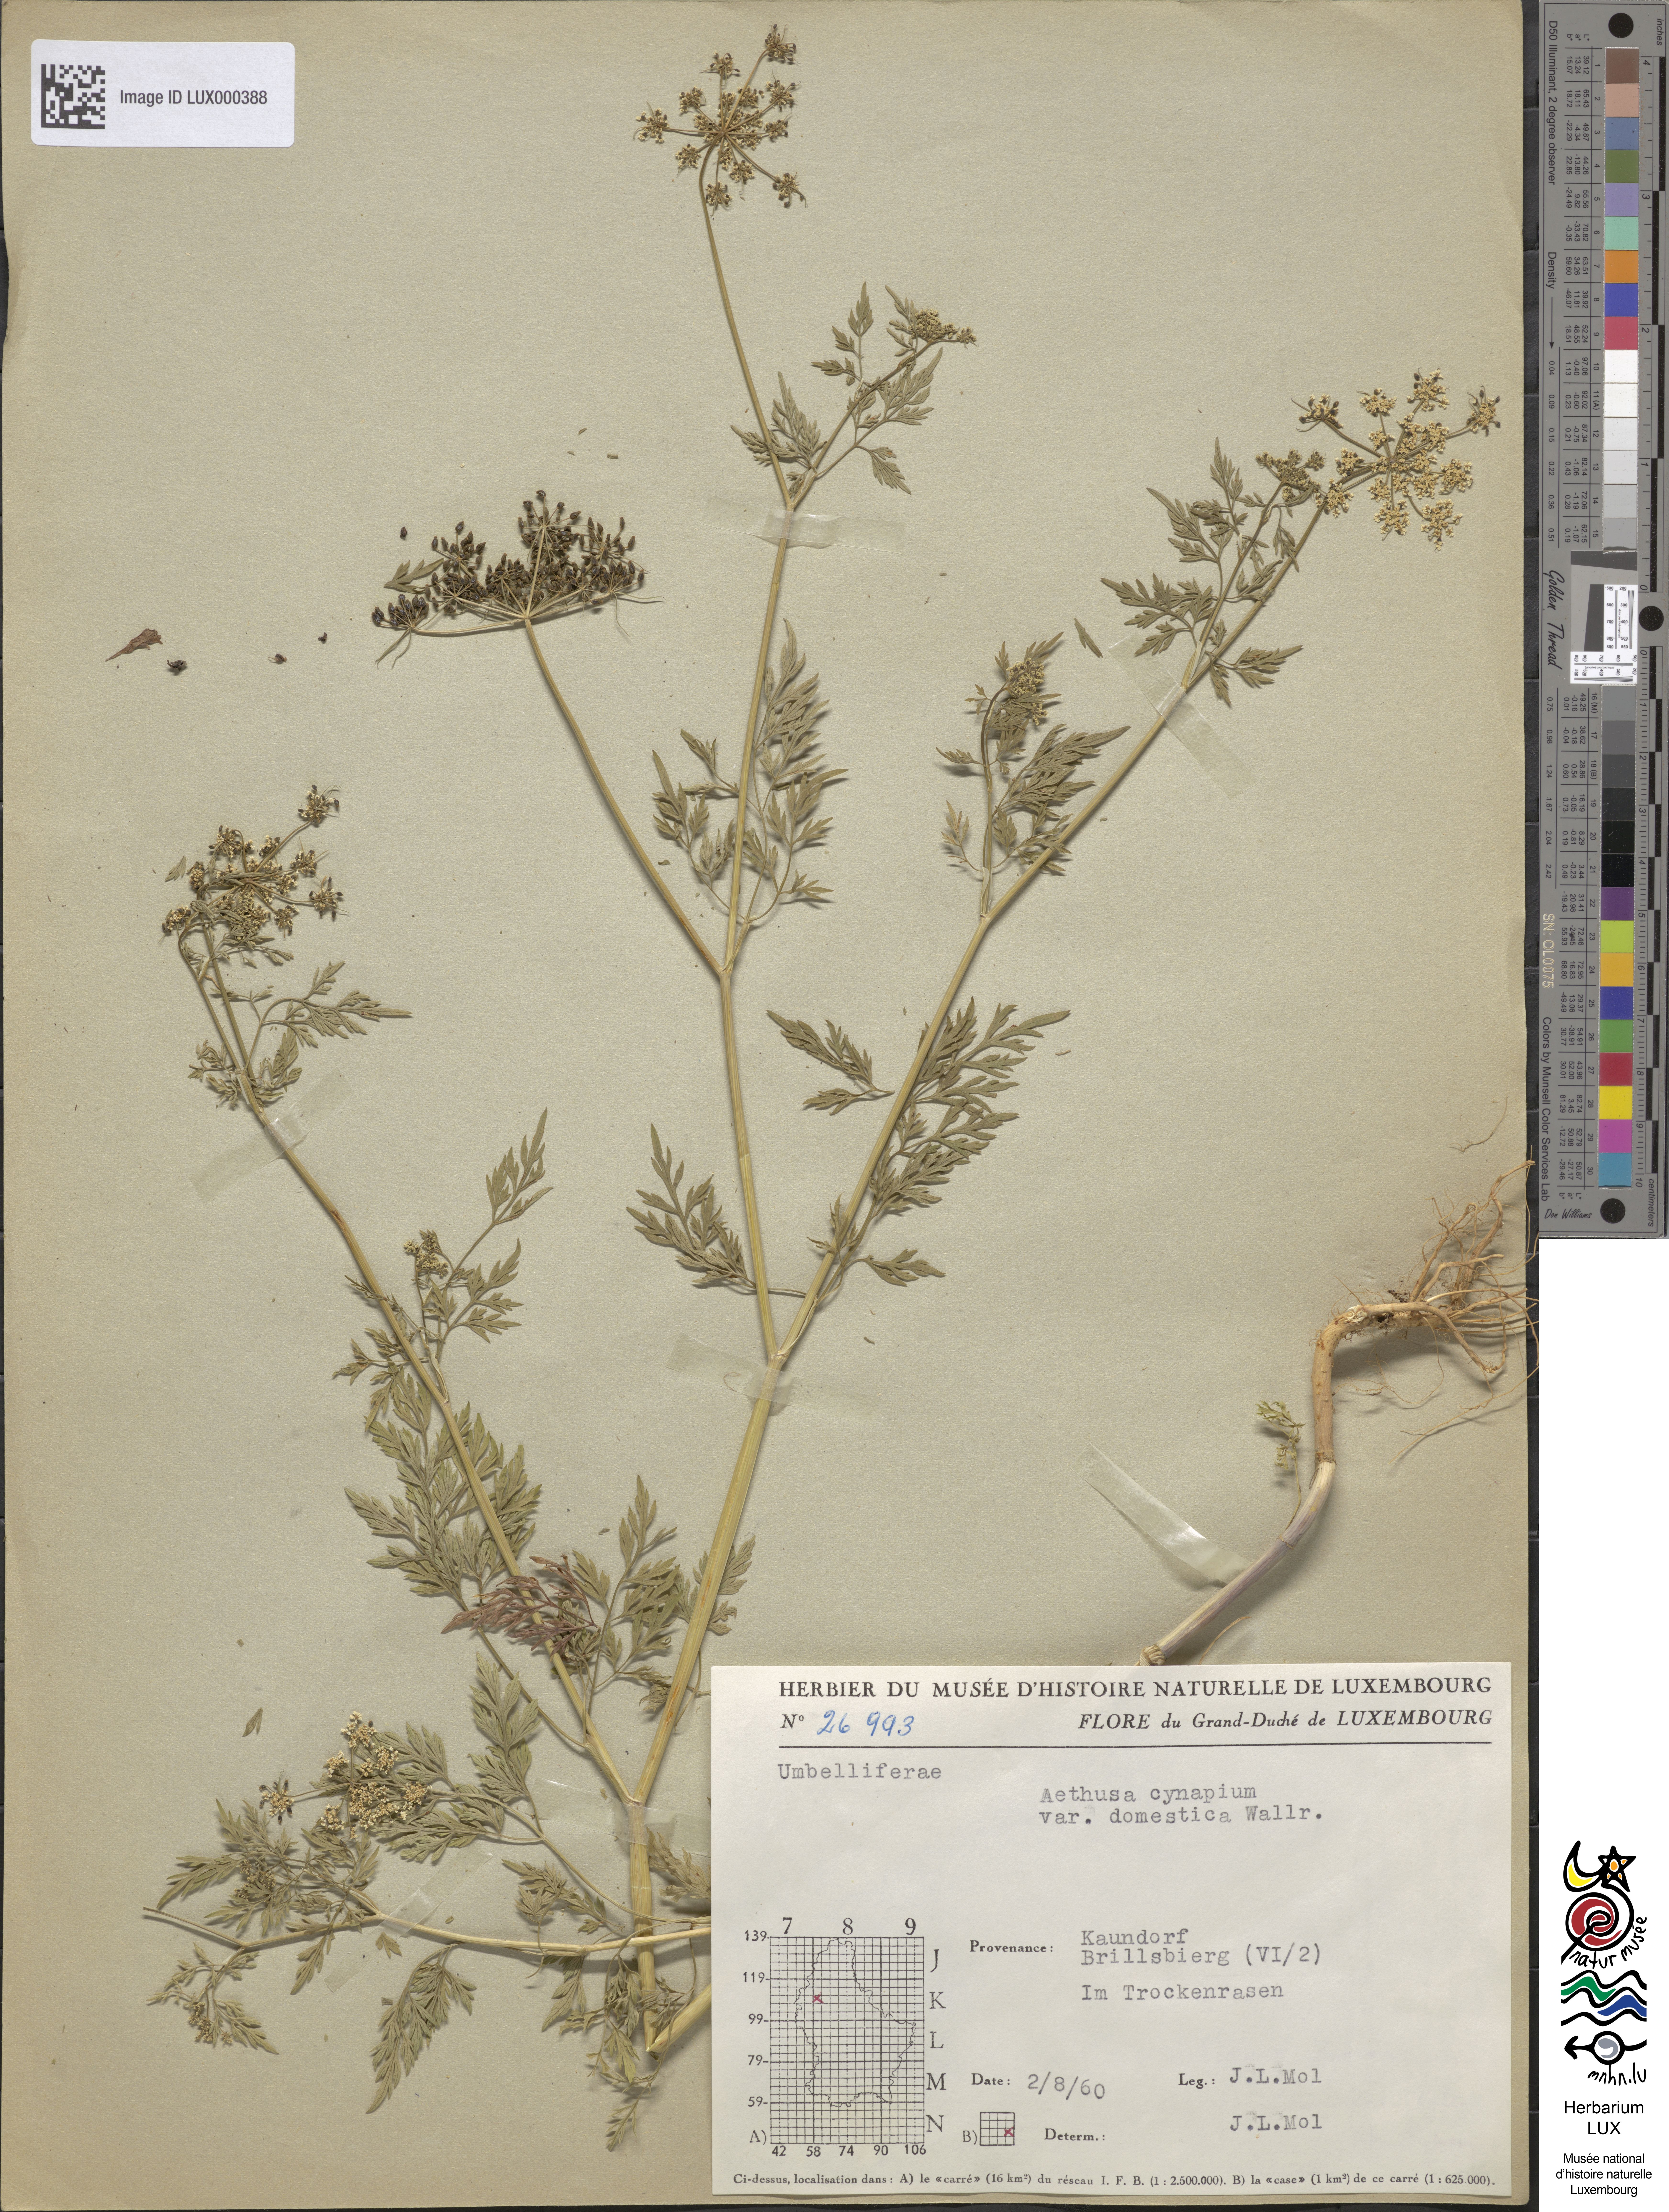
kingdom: Plantae
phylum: Tracheophyta
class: Magnoliopsida
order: Apiales
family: Apiaceae
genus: Aethusa
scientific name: Aethusa cynapium
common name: Fool's parsley
